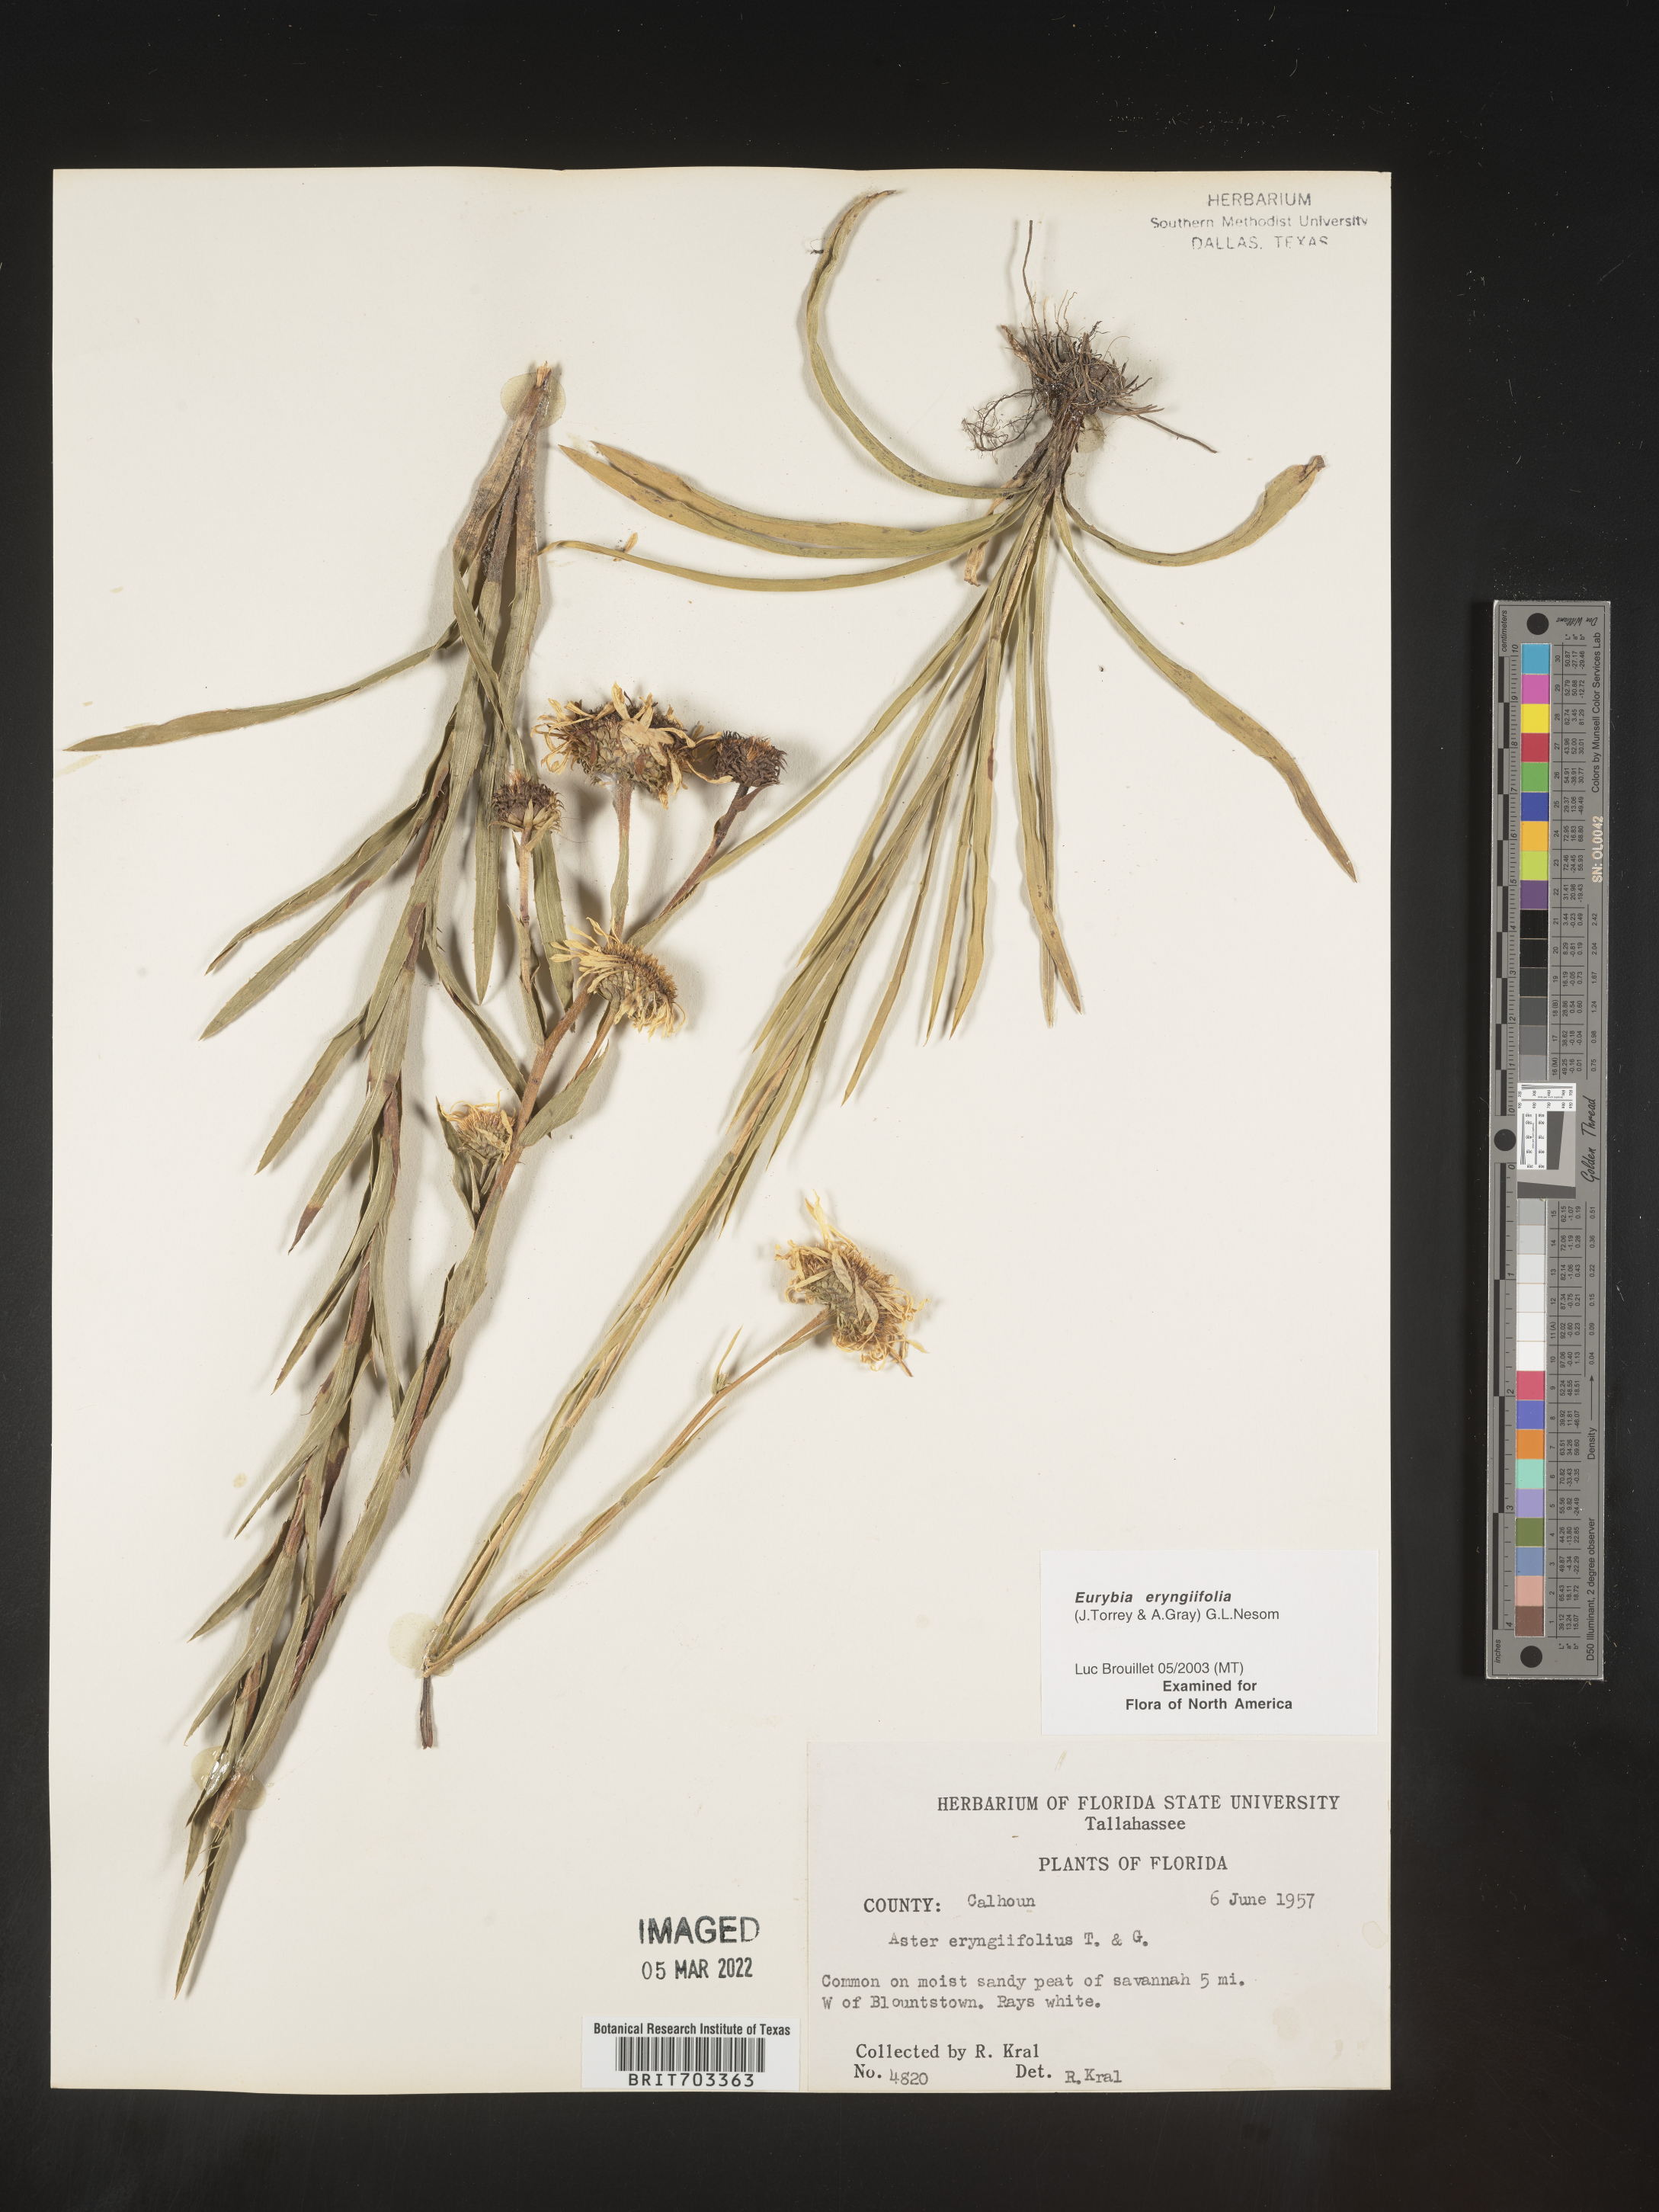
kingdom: Plantae
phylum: Tracheophyta
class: Magnoliopsida
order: Asterales
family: Asteraceae
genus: Eurybia
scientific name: Eurybia eryngiifolia
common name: Thistle-leaf aster
